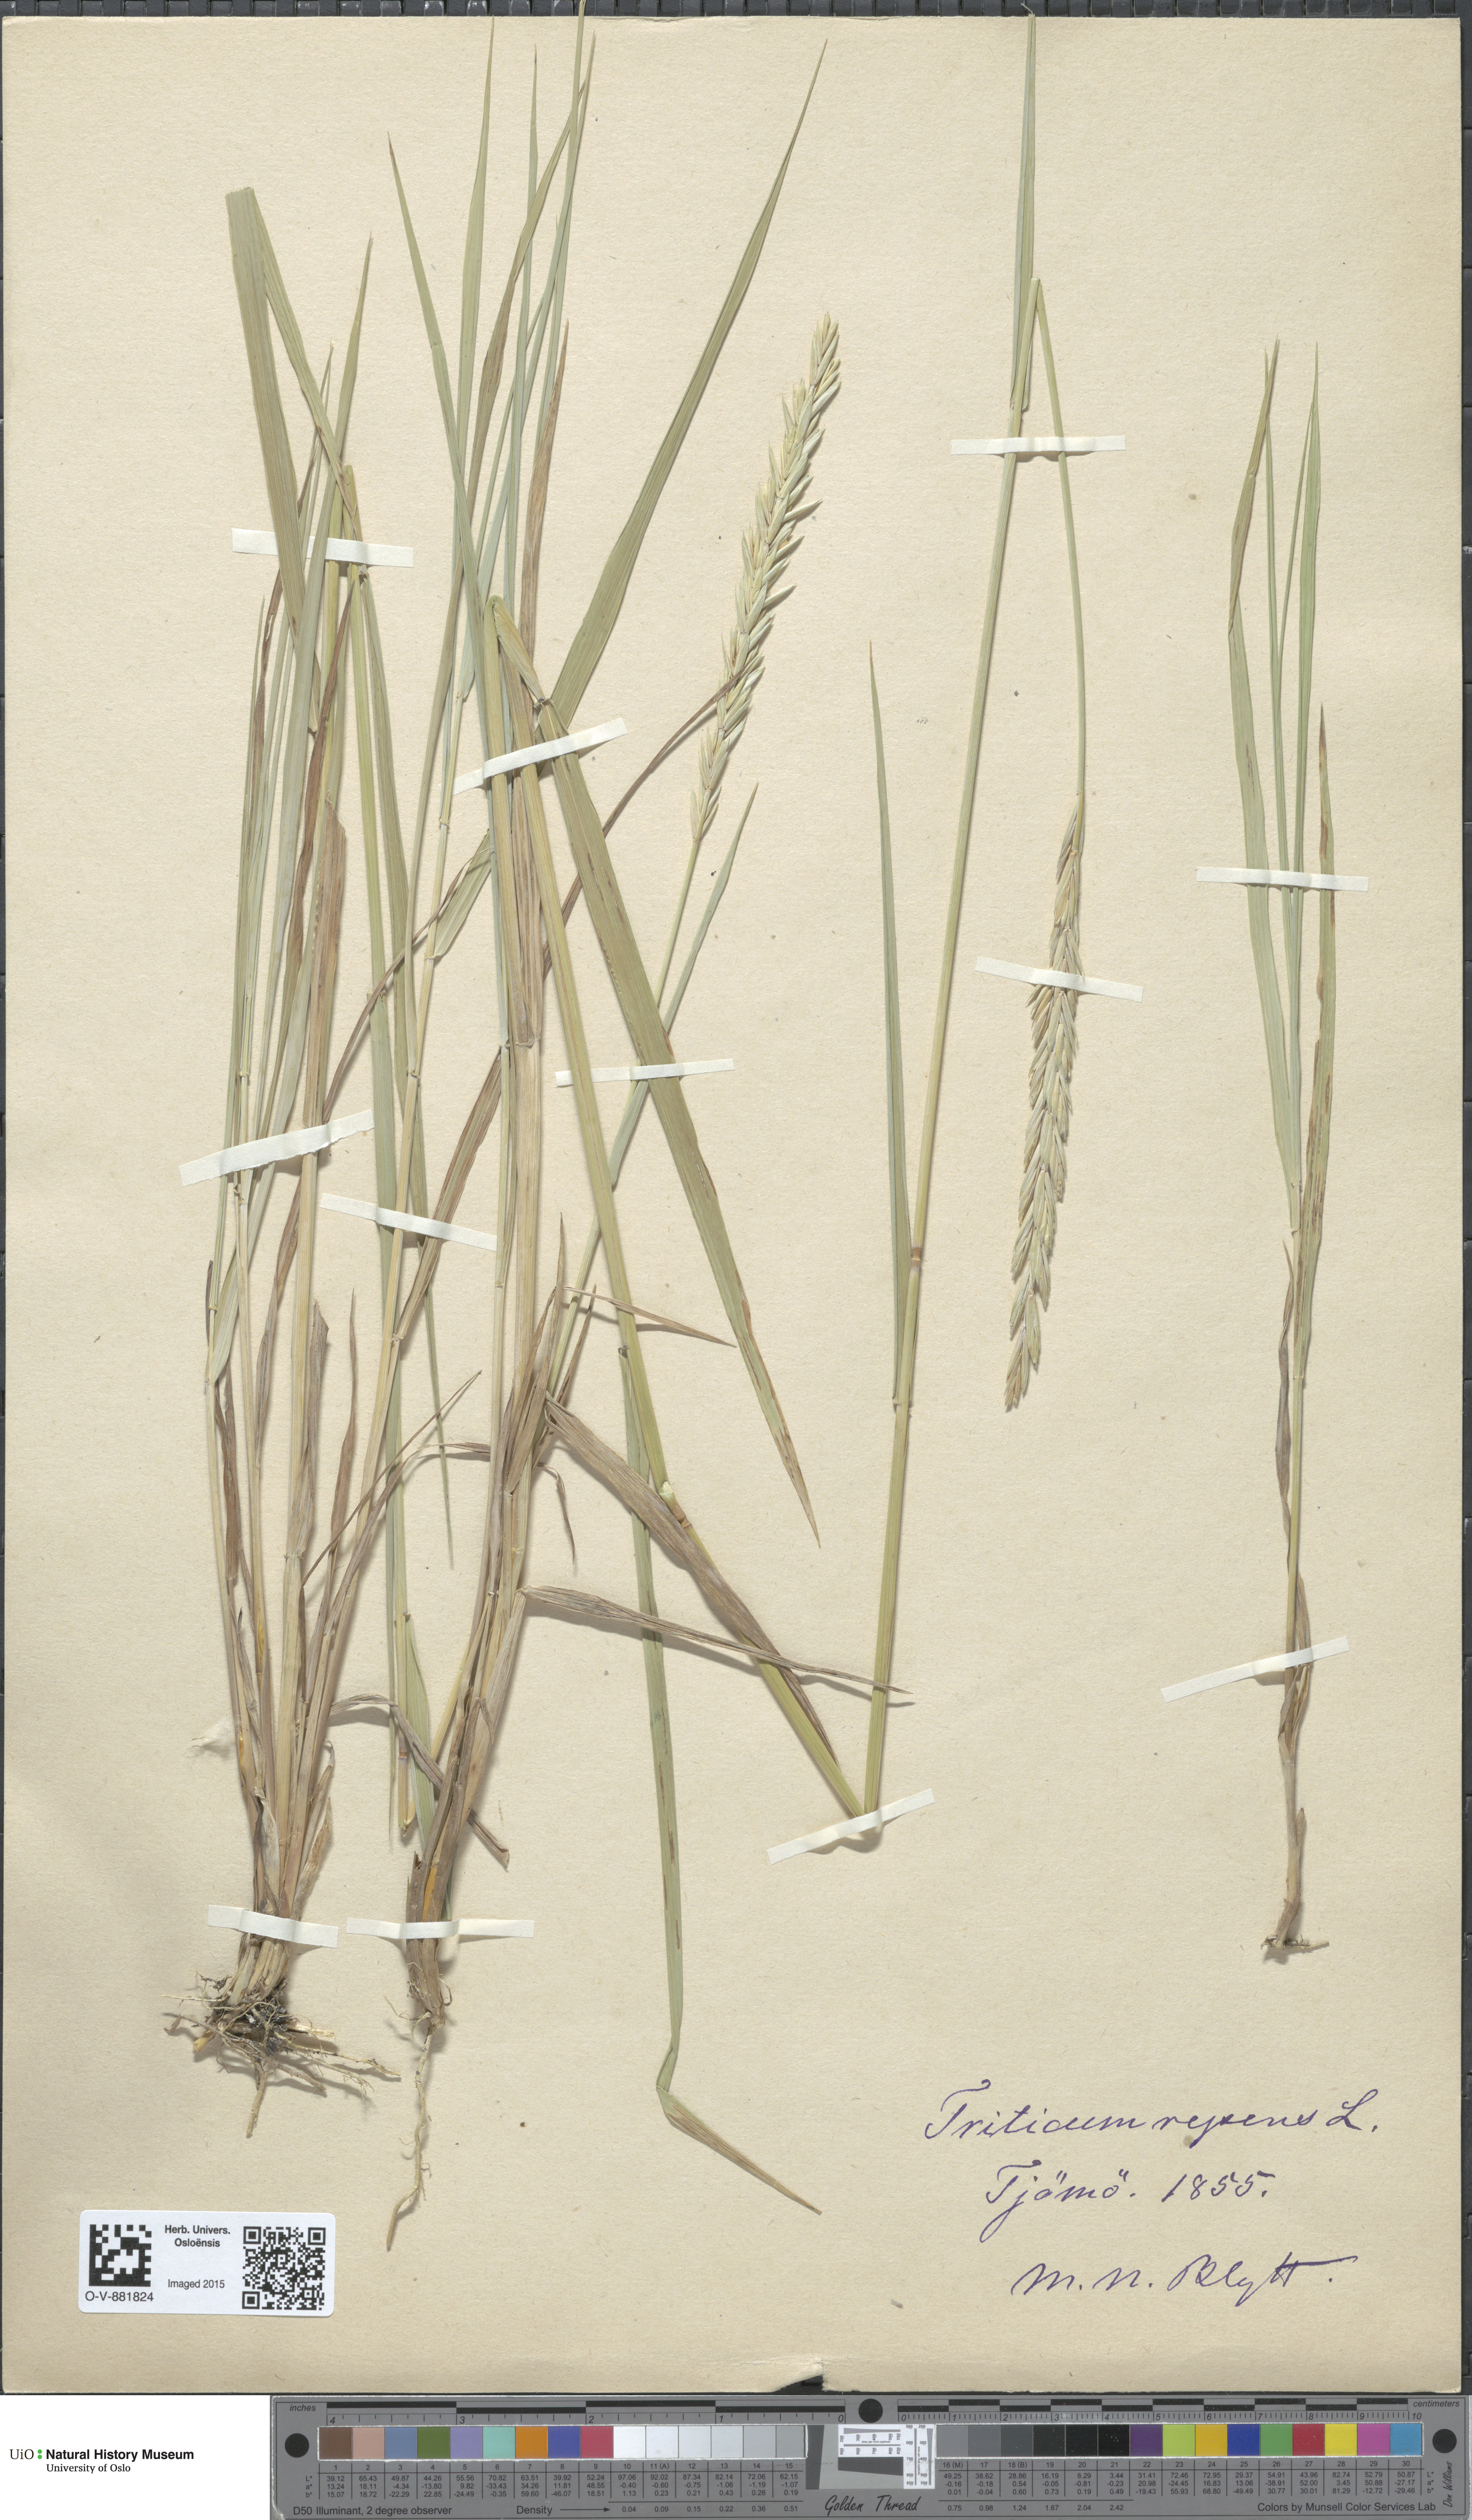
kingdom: Plantae
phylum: Tracheophyta
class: Liliopsida
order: Poales
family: Poaceae
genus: Elymus
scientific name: Elymus repens
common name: Quackgrass
